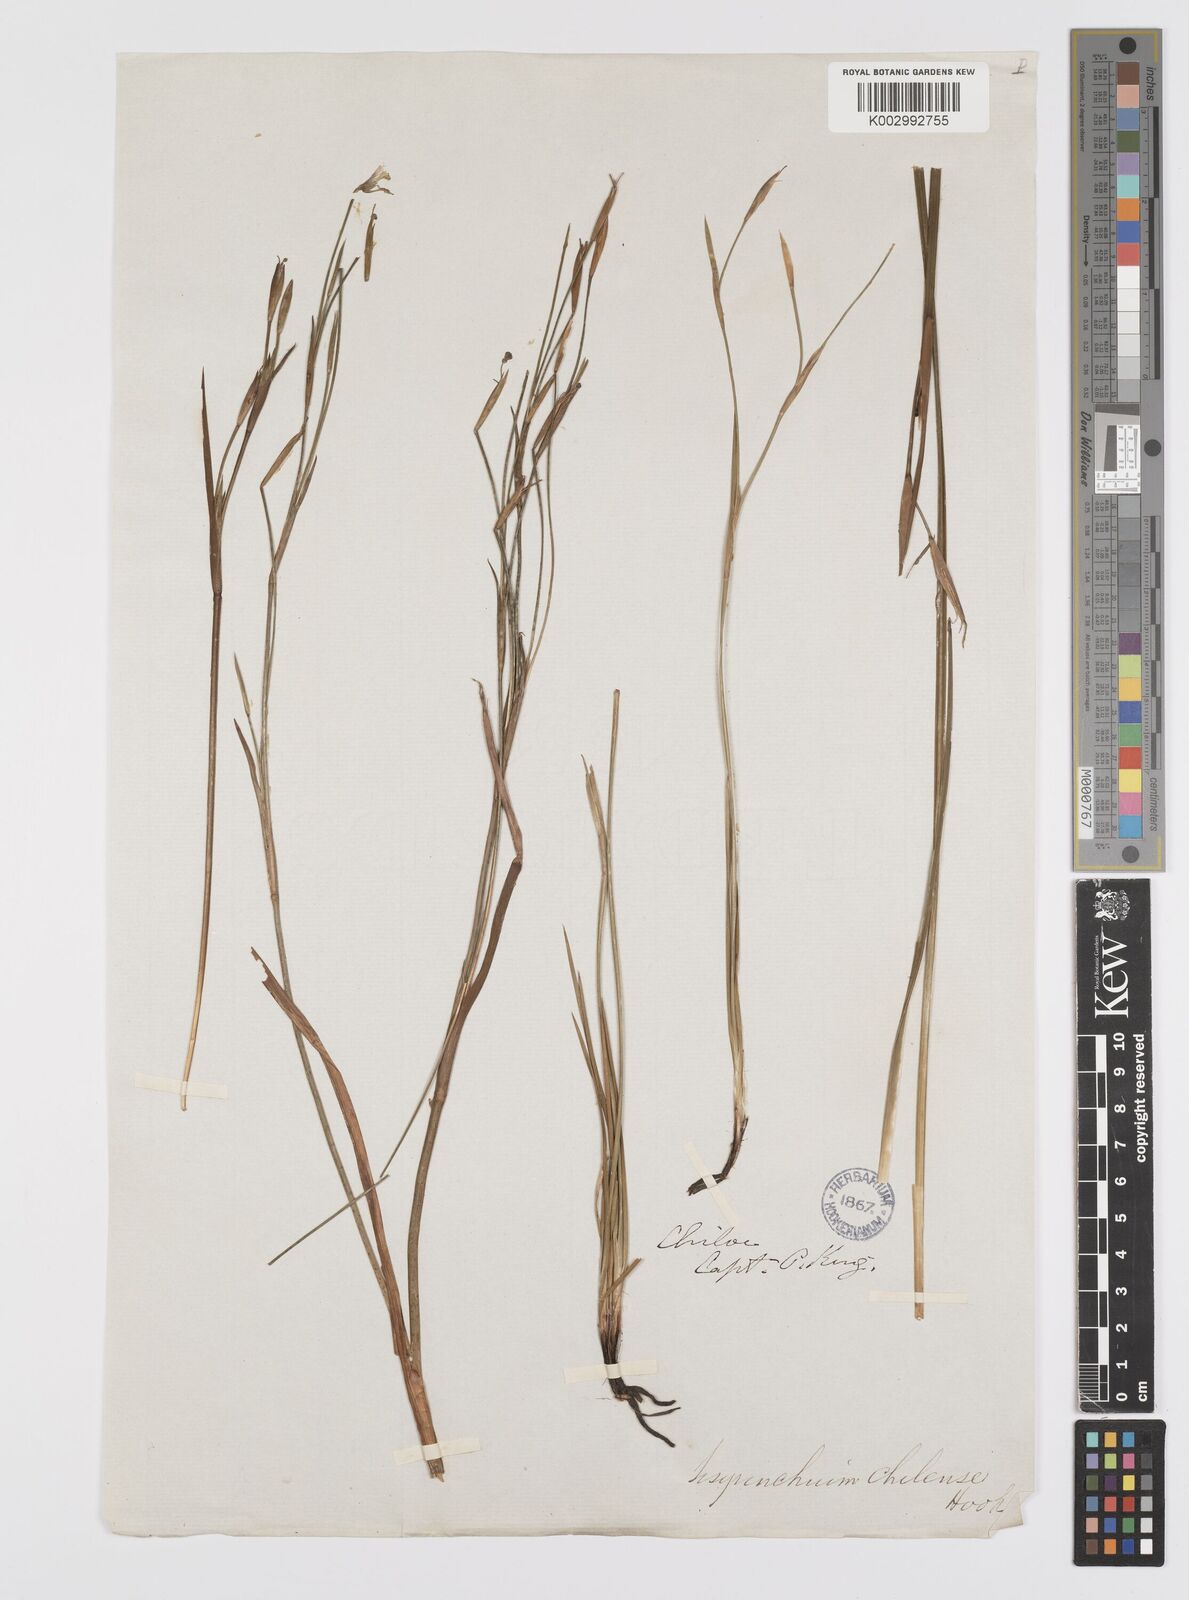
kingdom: Plantae
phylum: Tracheophyta
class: Liliopsida
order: Asparagales
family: Iridaceae
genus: Sisyrinchium
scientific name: Sisyrinchium chilense
